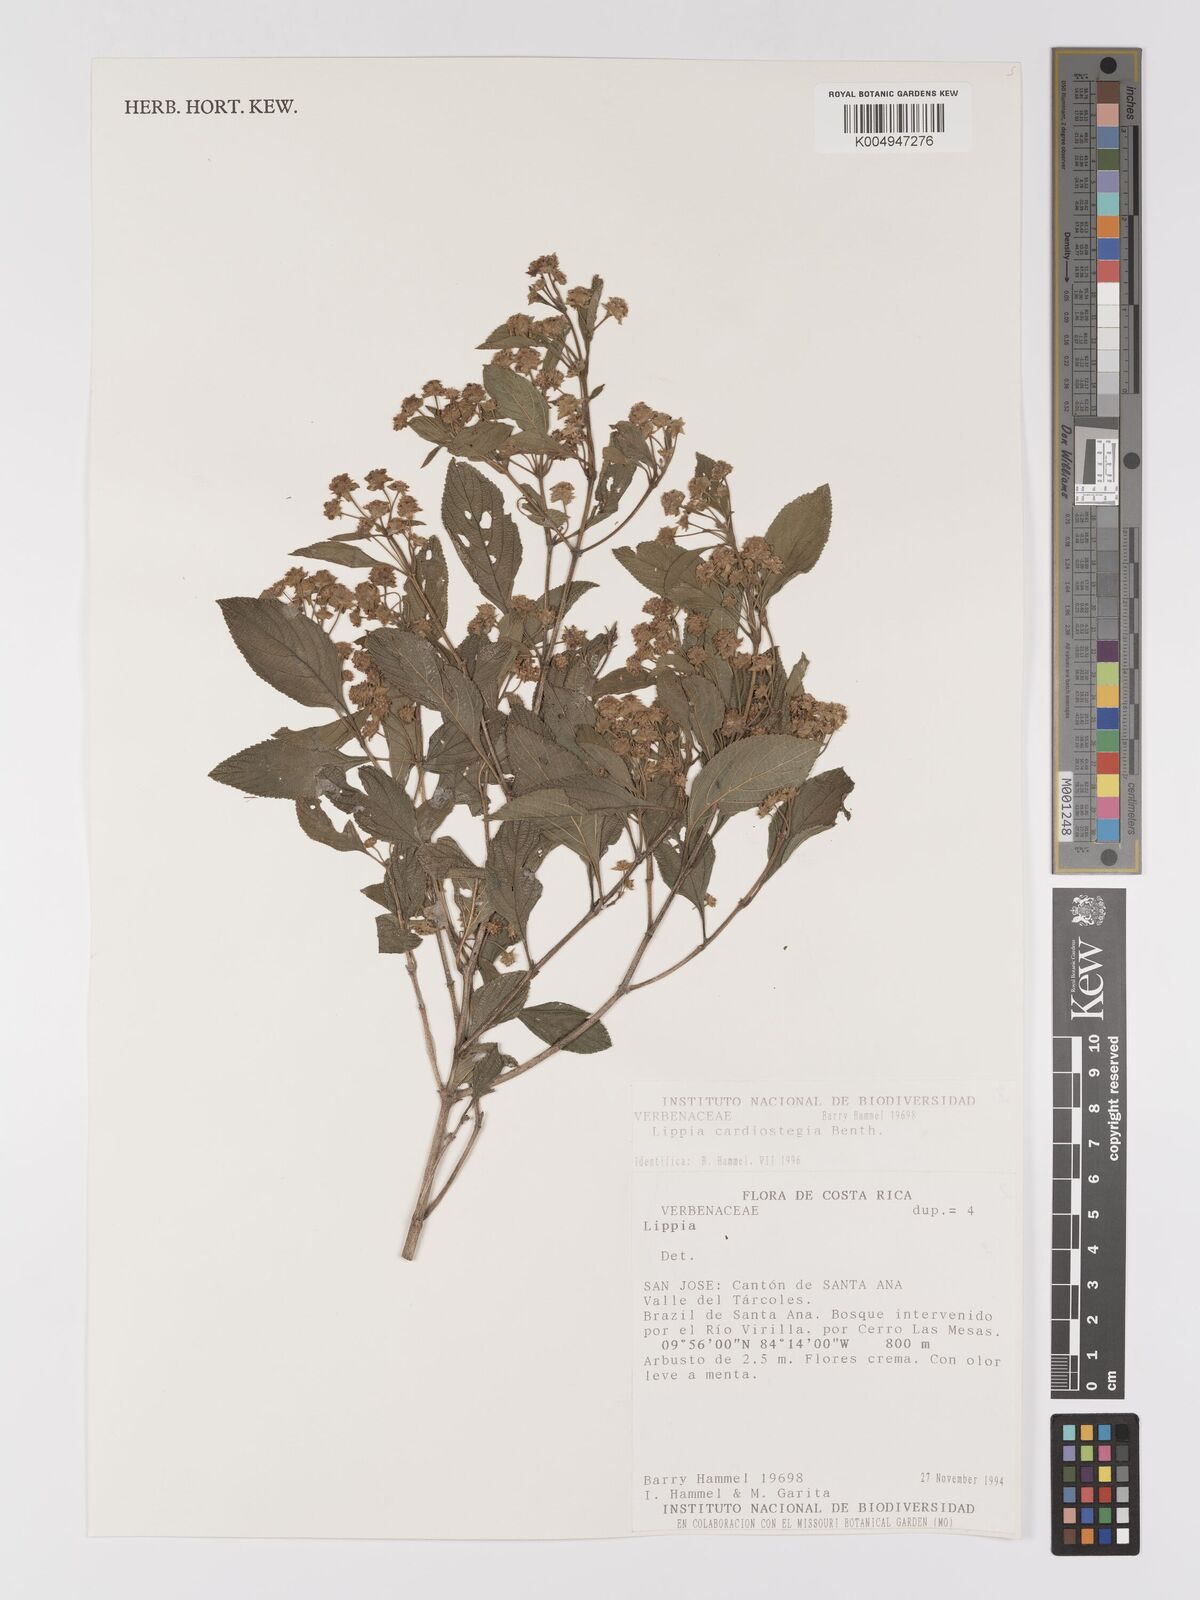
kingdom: Plantae
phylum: Tracheophyta
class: Magnoliopsida
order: Lamiales
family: Verbenaceae
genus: Lippia
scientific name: Lippia cardiostegia
